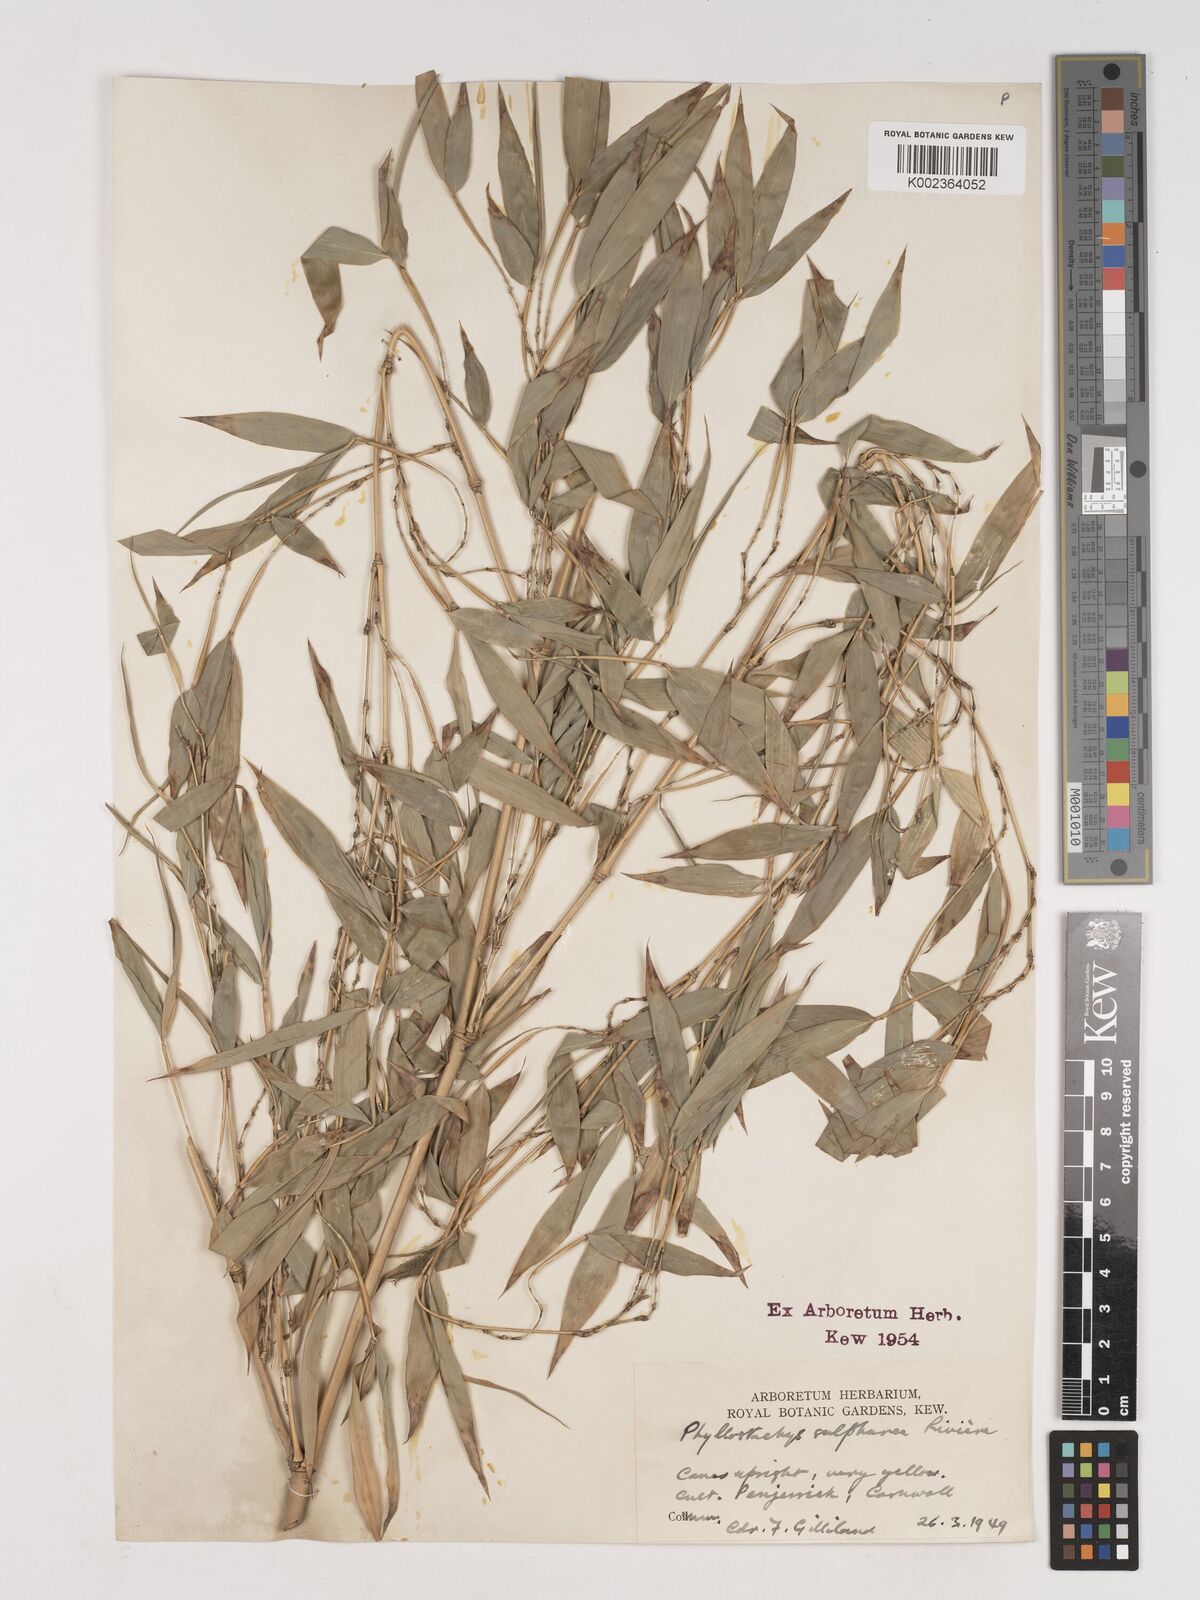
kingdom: Plantae
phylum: Tracheophyta
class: Liliopsida
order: Poales
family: Poaceae
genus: Phyllostachys
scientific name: Phyllostachys sulphurea
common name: Sulphur bamboo
